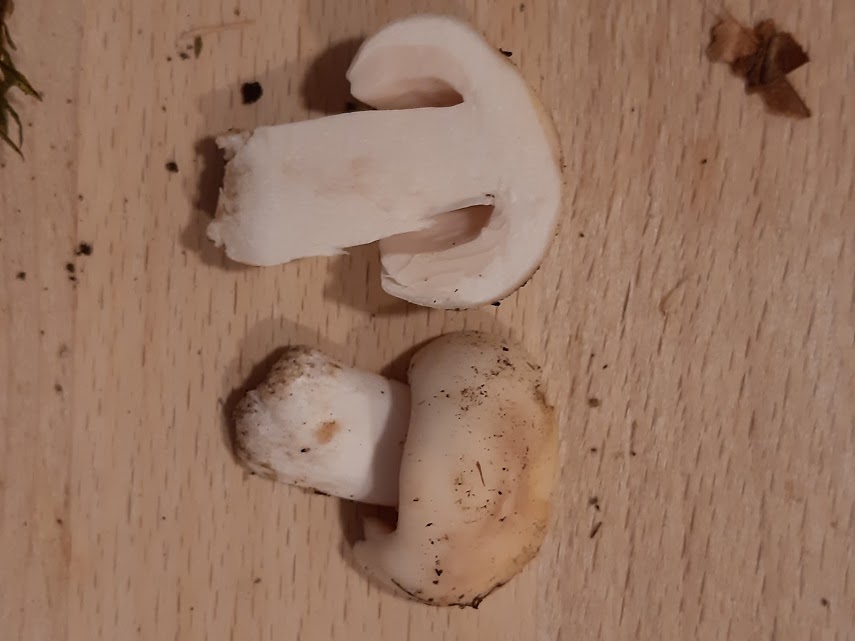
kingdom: Fungi
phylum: Basidiomycota
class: Agaricomycetes
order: Russulales
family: Russulaceae
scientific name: Russulaceae
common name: skørhatfamilien
